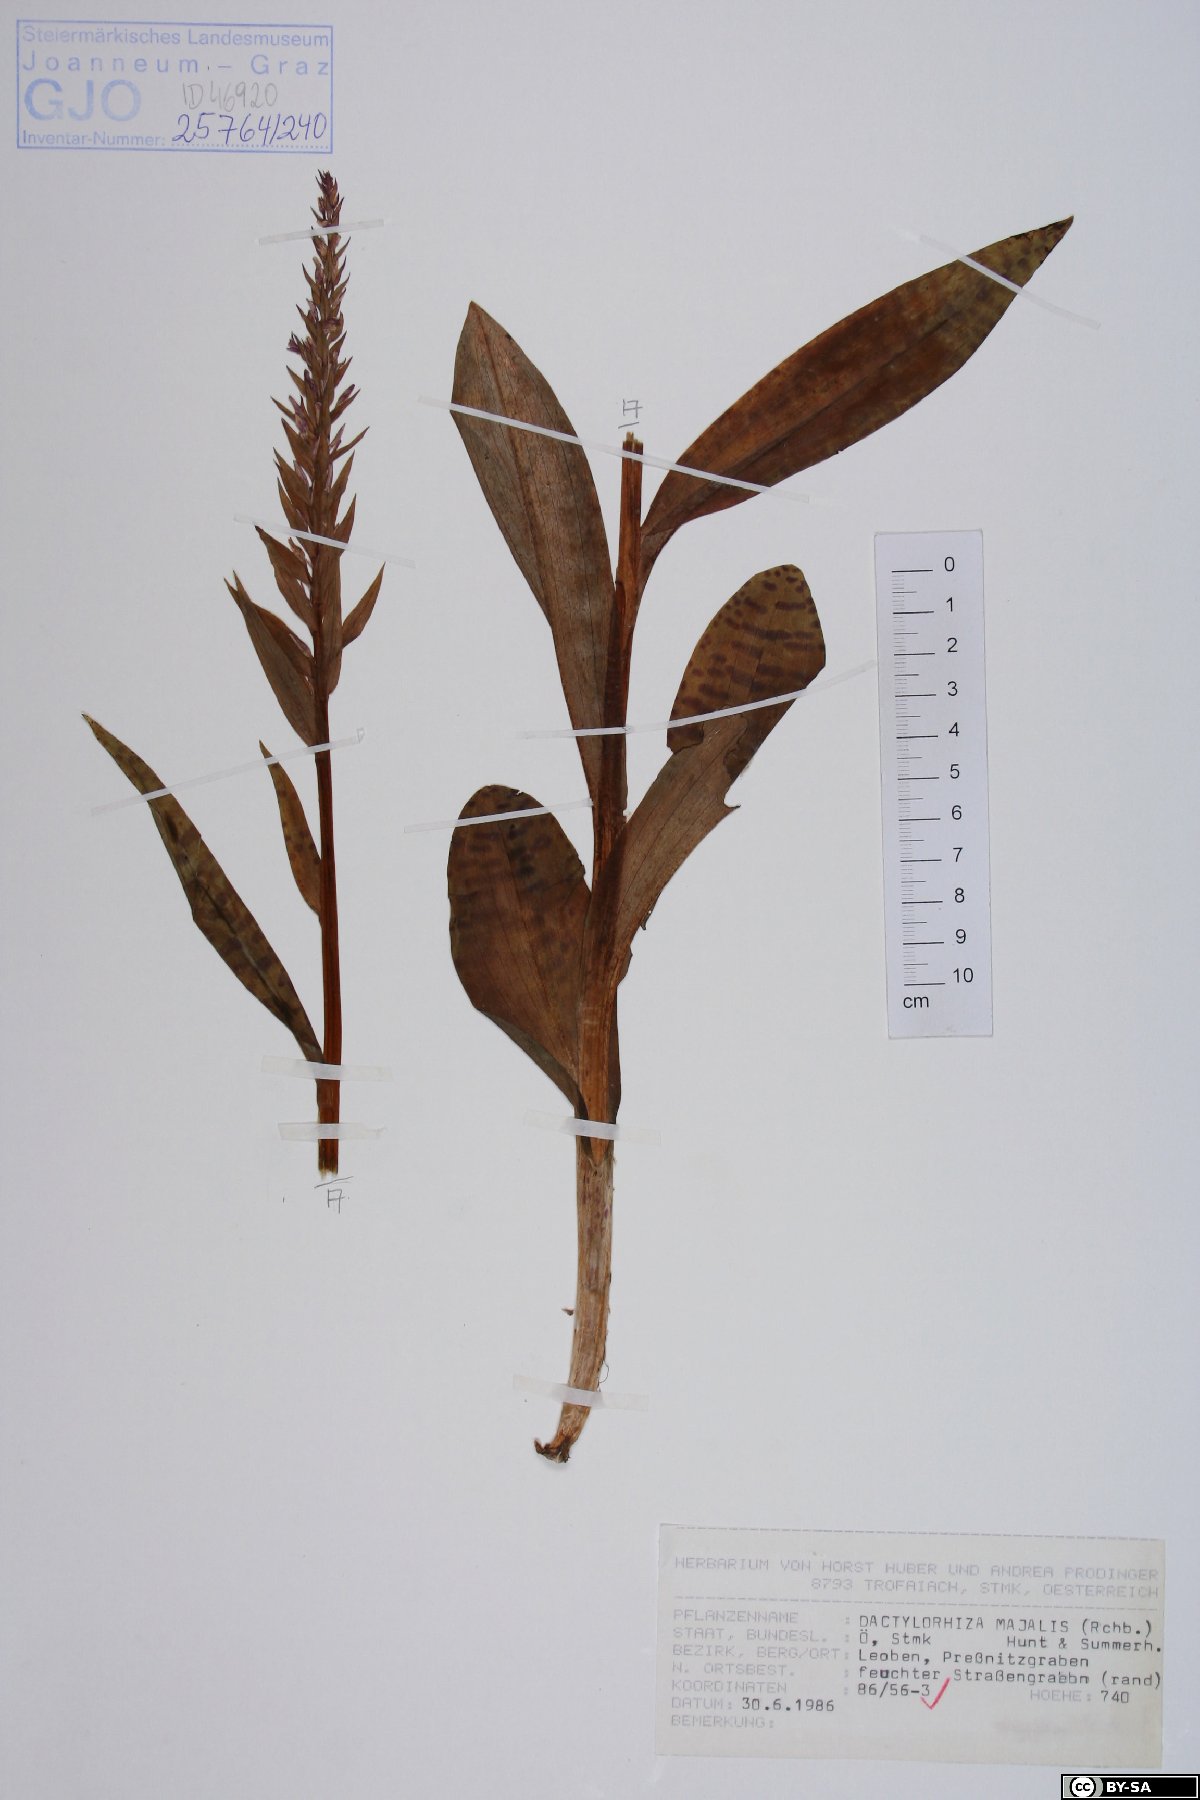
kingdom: Plantae
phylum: Tracheophyta
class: Liliopsida
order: Asparagales
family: Orchidaceae
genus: Dactylorhiza
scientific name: Dactylorhiza majalis
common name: Marsh orchid
